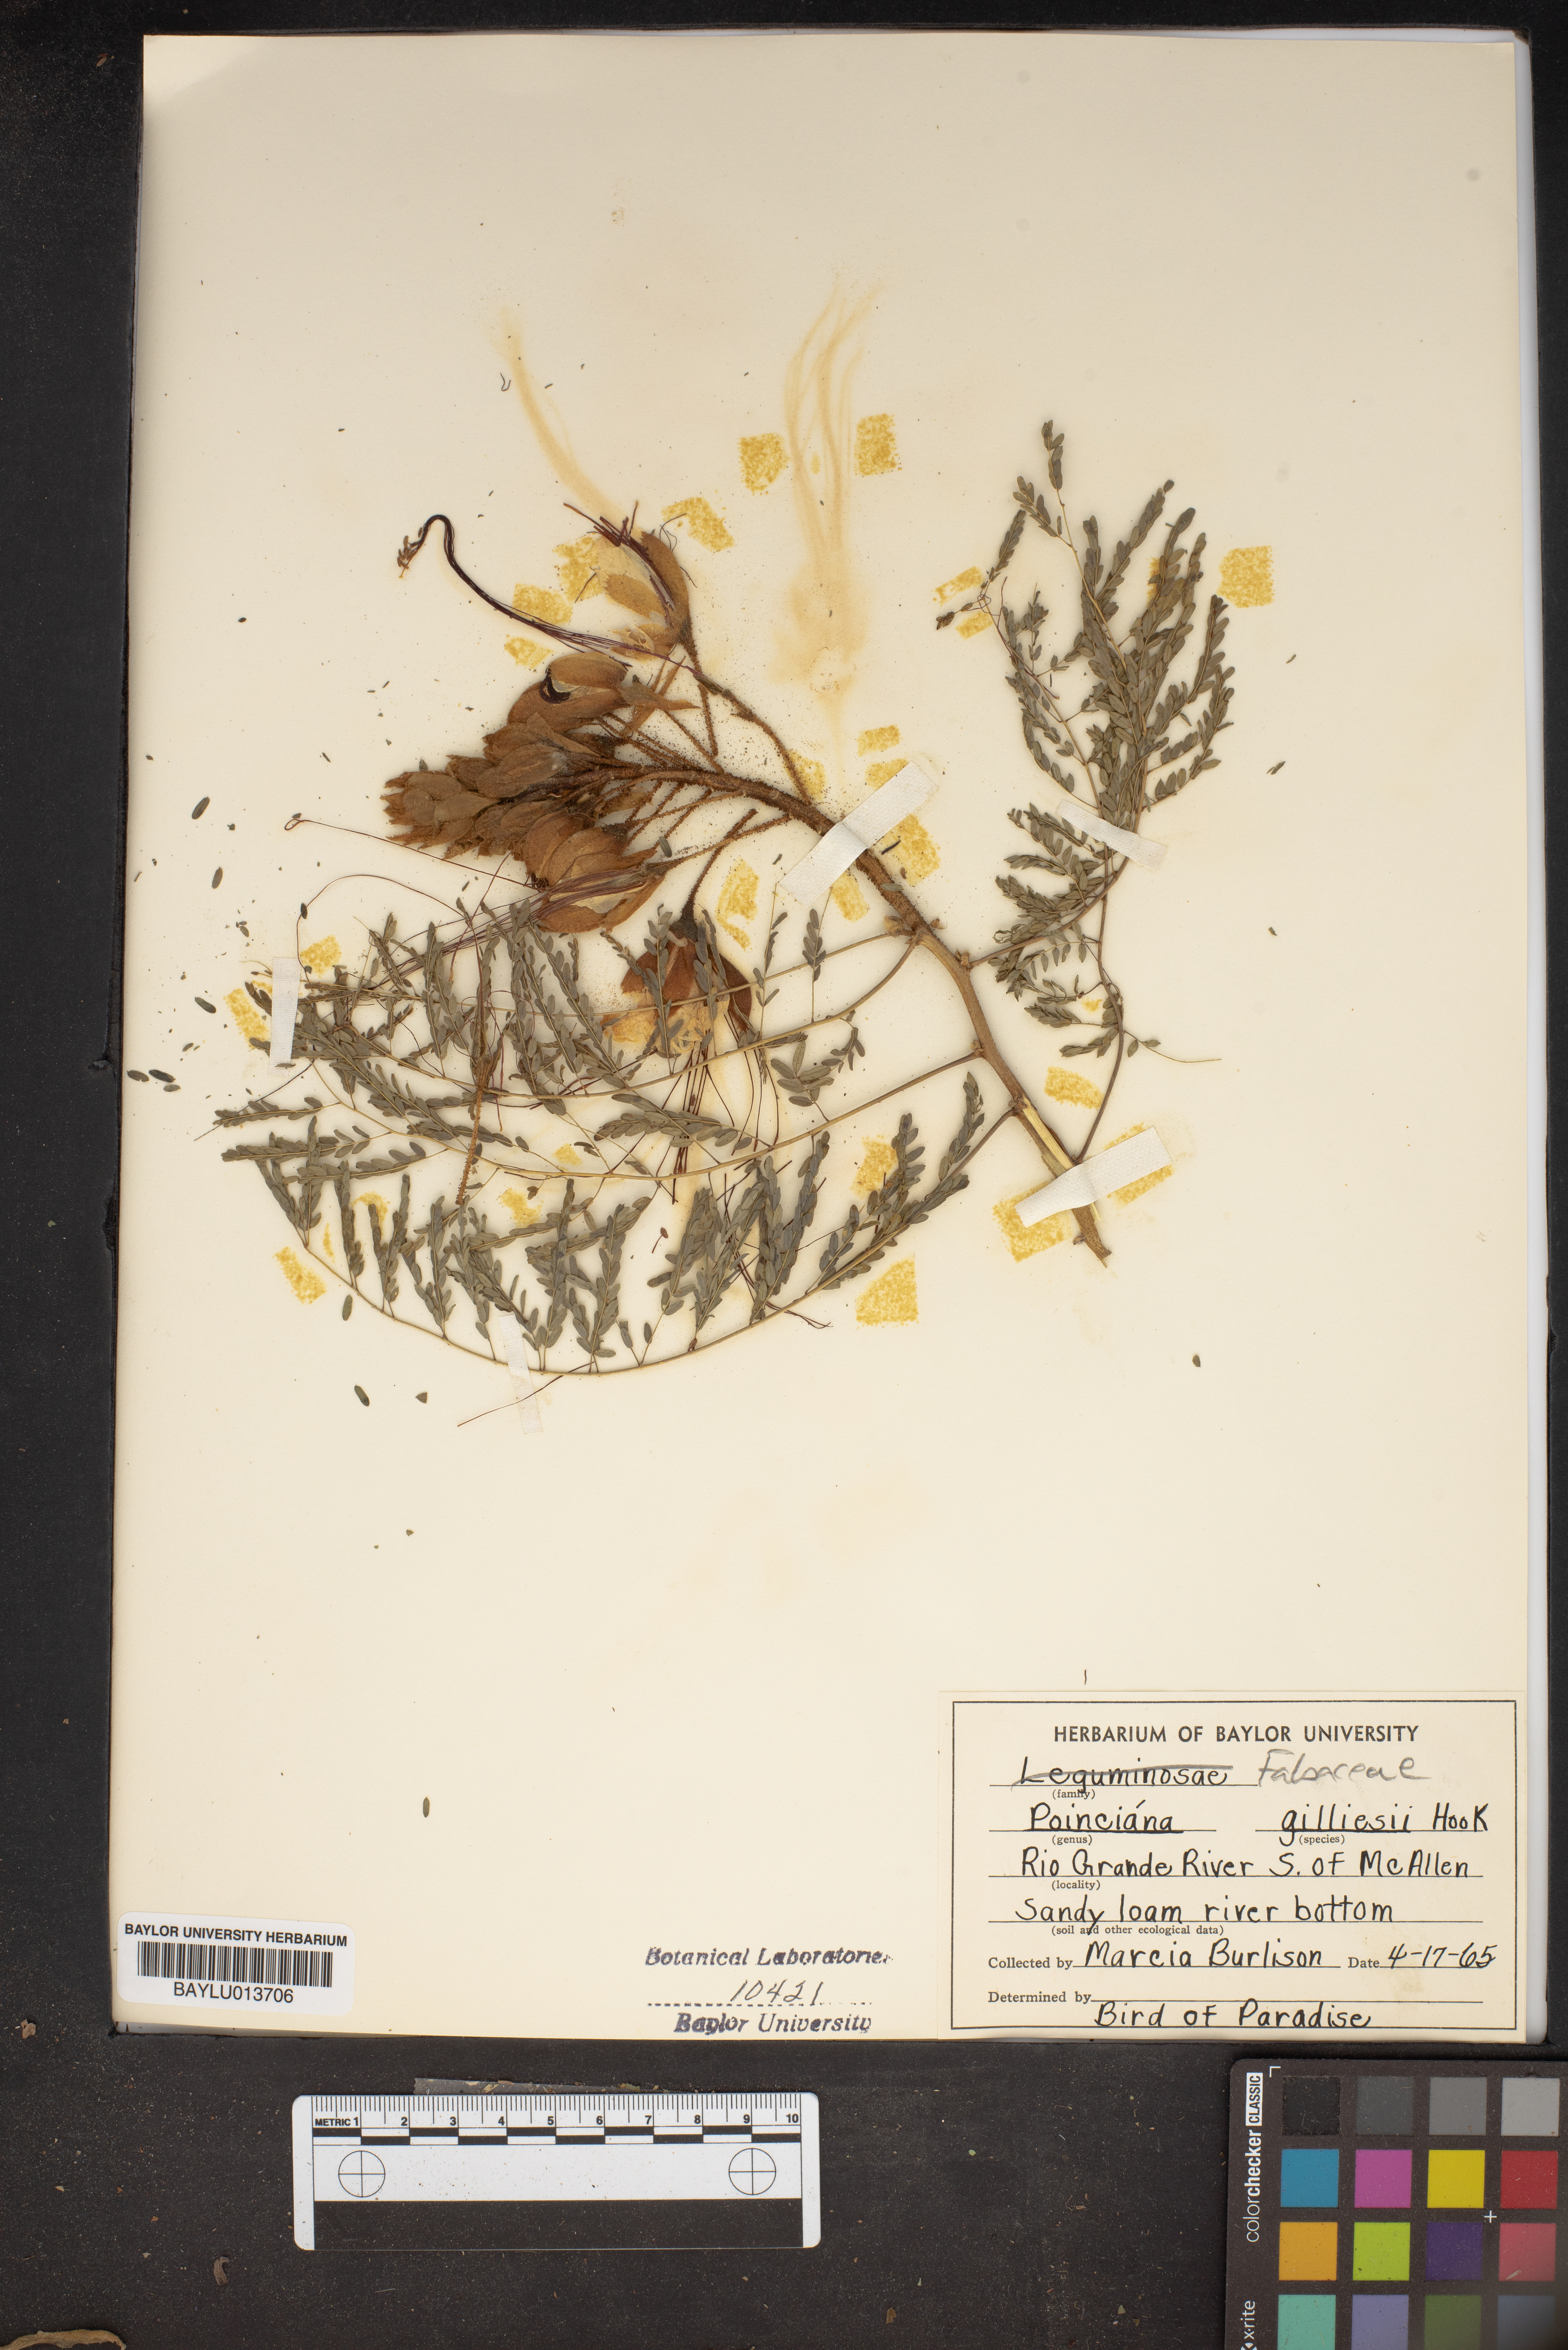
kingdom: Plantae
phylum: Tracheophyta
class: Magnoliopsida
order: Fabales
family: Fabaceae
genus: Erythrostemon
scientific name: Erythrostemon gilliesii
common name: Bird-of-paradise shrub
